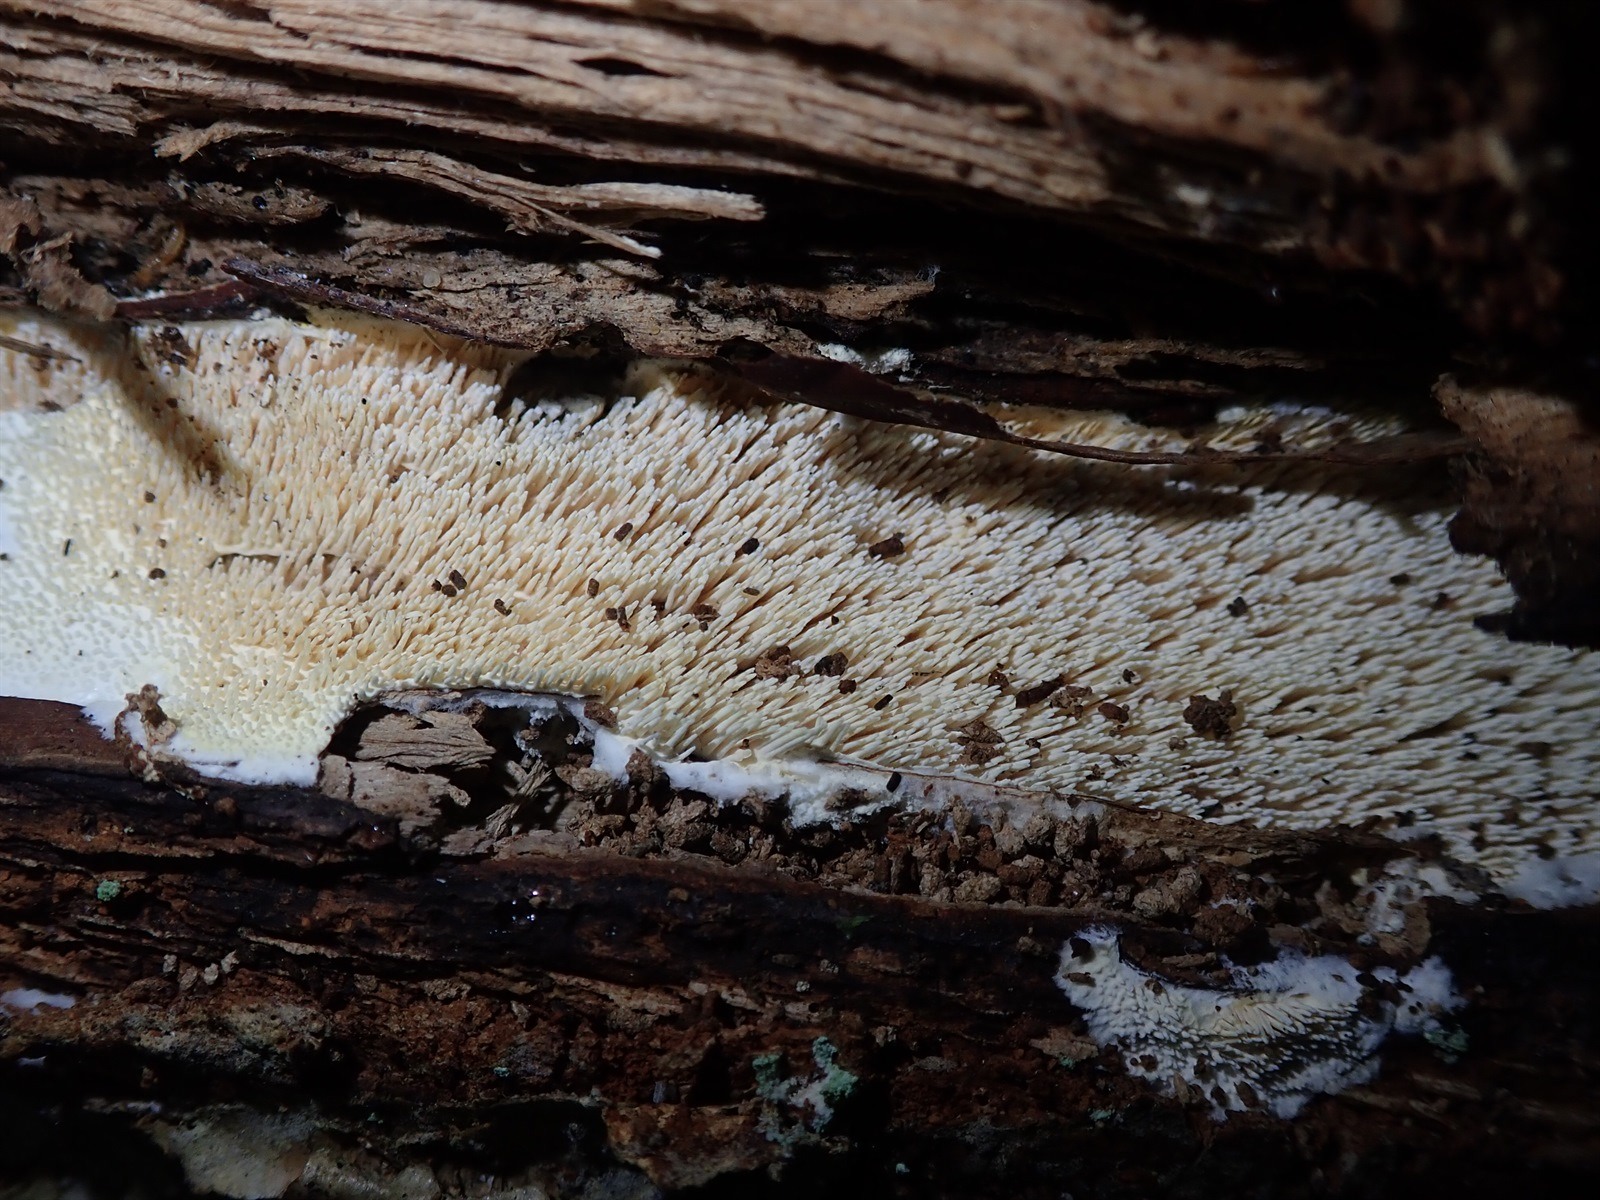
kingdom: Fungi
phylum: Basidiomycota
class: Agaricomycetes
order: Russulales
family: Hericiaceae
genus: Dentipellis
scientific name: Dentipellis coniferarum
